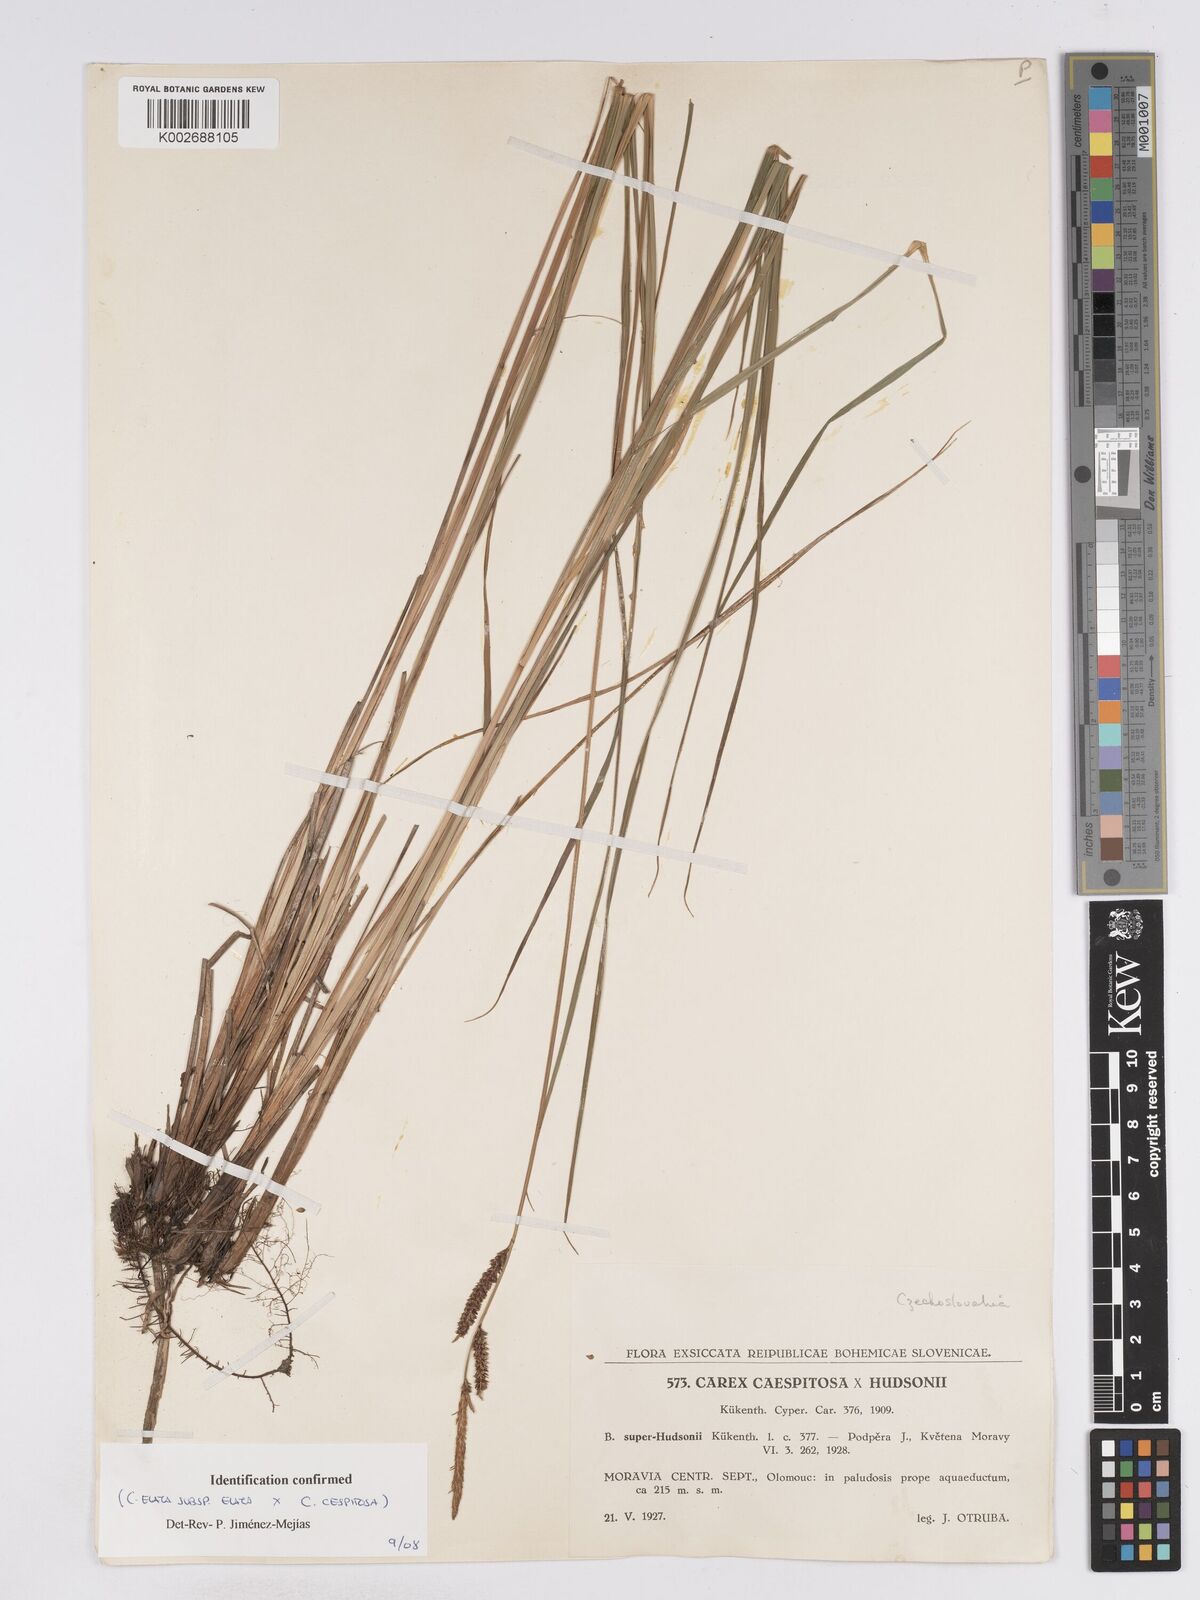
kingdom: Plantae
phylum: Tracheophyta
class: Liliopsida
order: Poales
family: Cyperaceae
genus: Carex
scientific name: Carex
